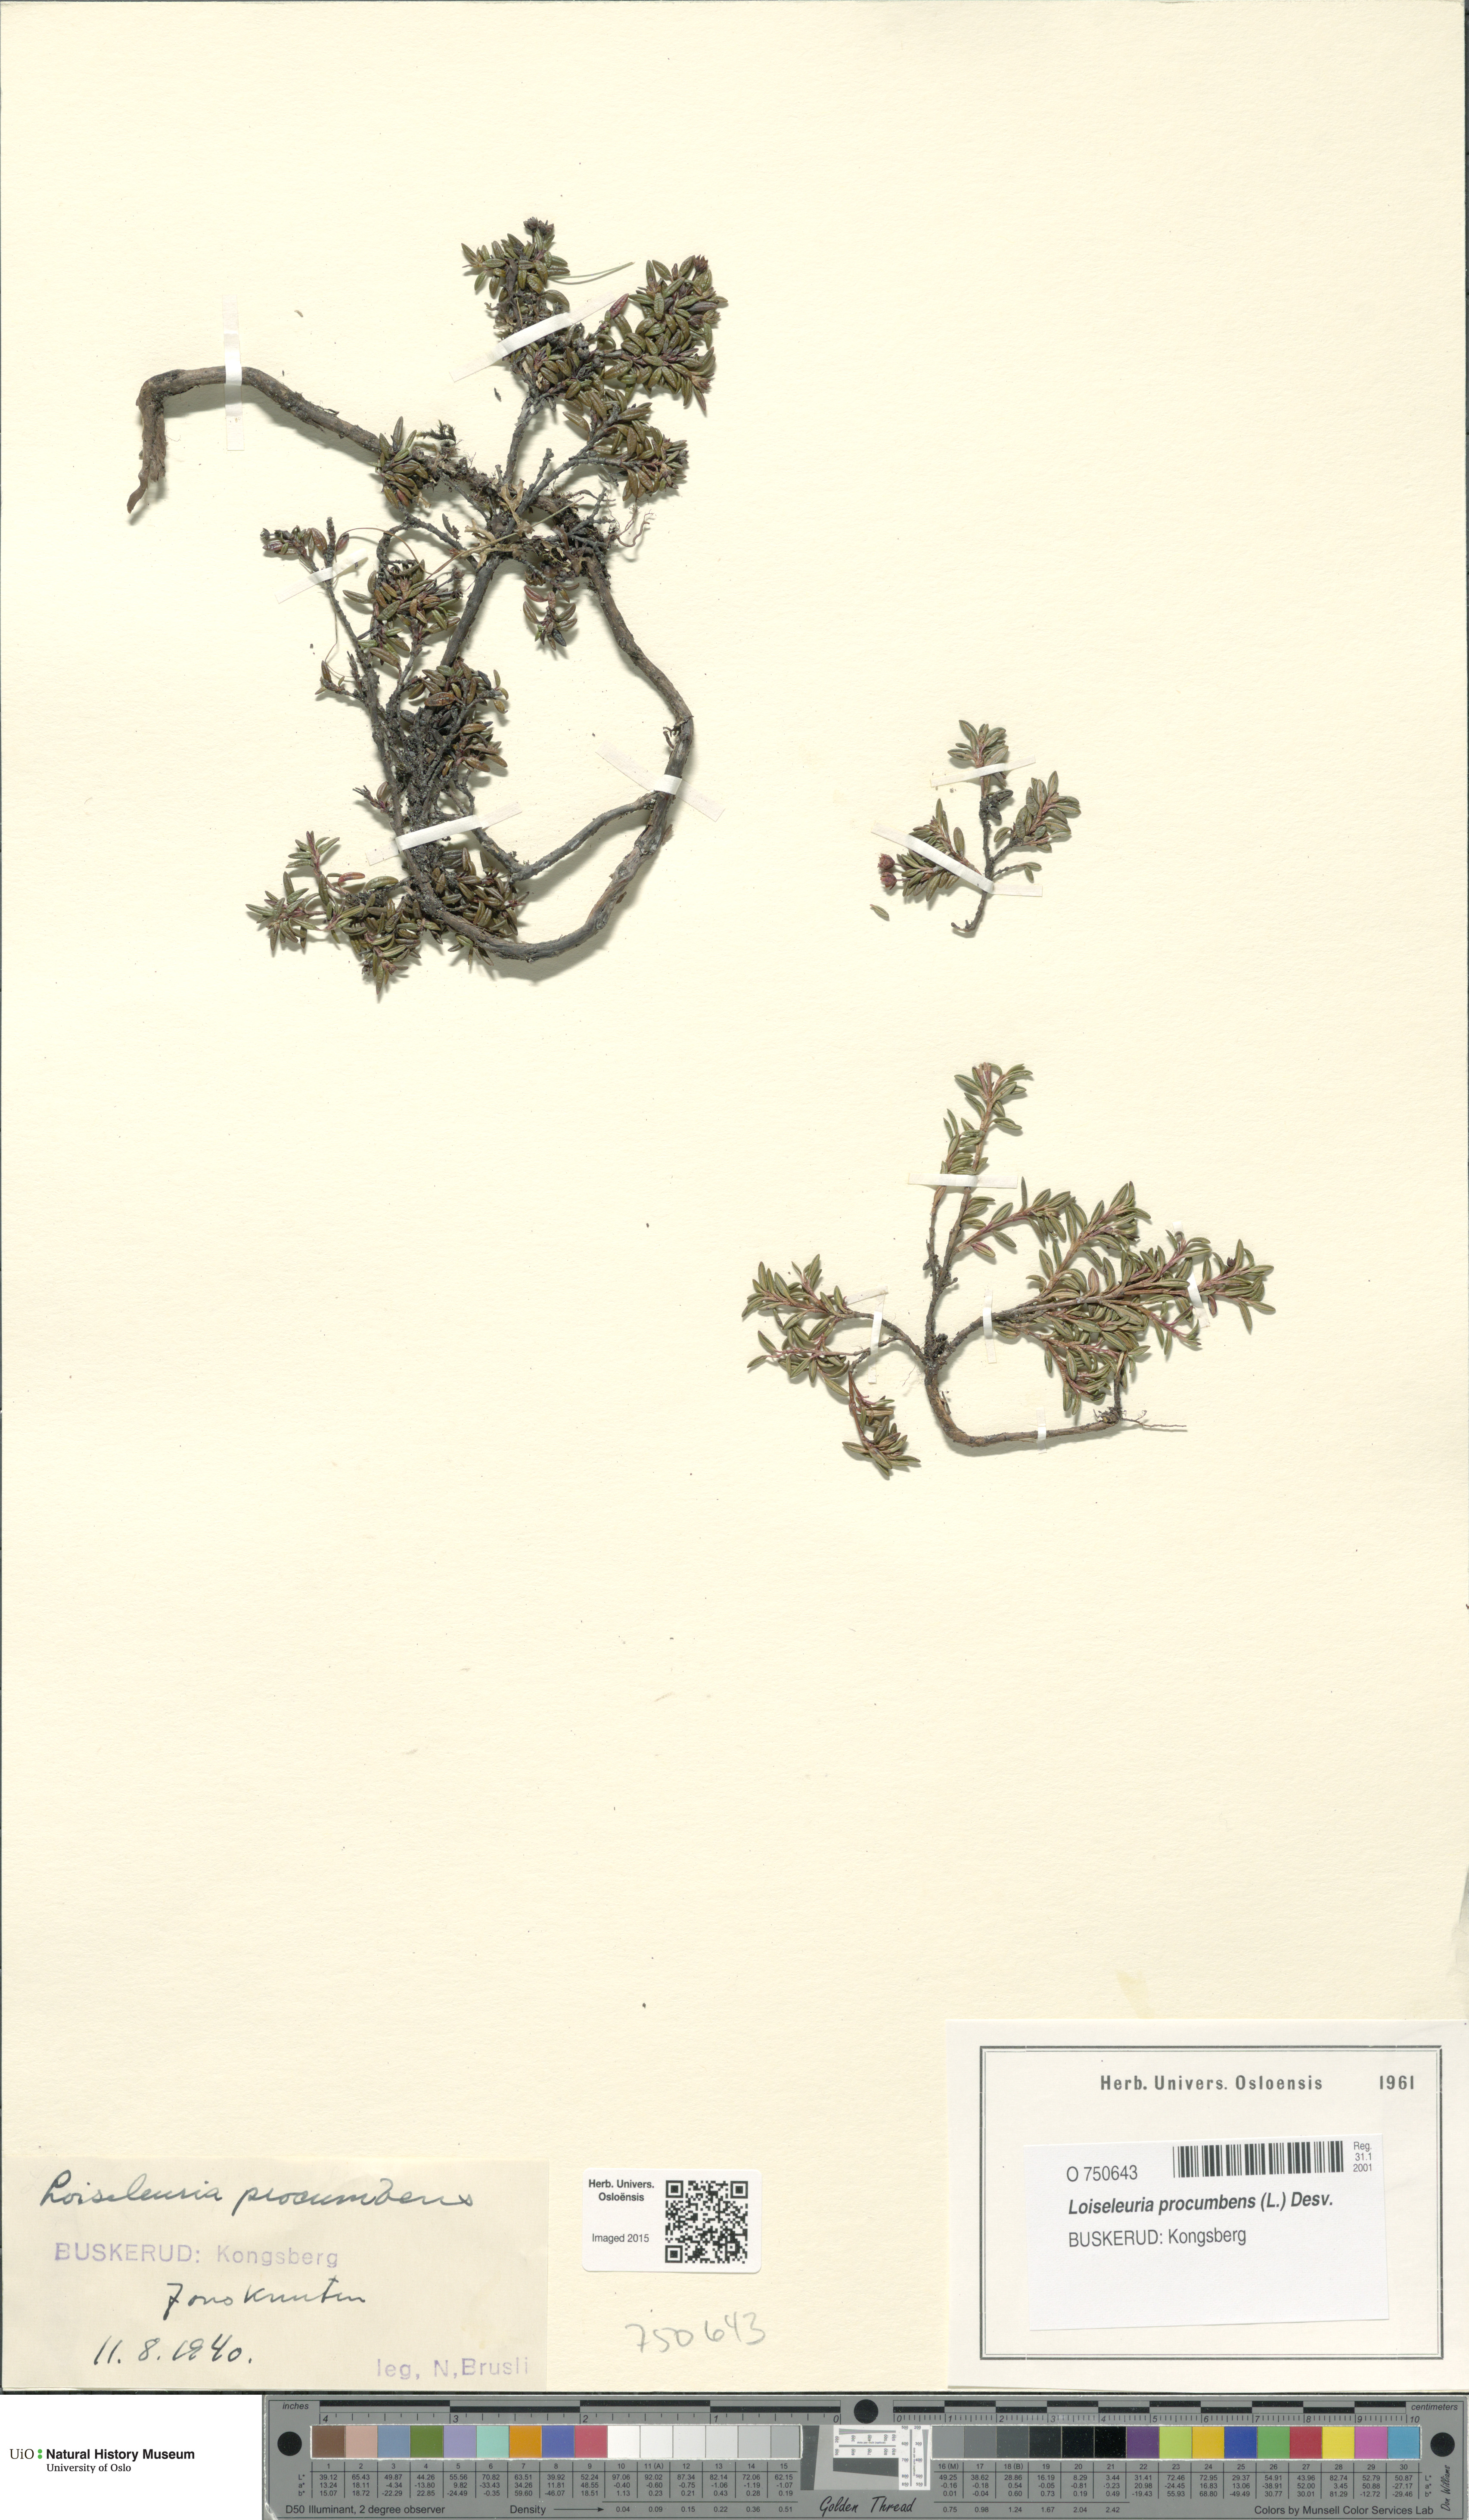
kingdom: Plantae
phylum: Tracheophyta
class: Magnoliopsida
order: Ericales
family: Ericaceae
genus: Kalmia
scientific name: Kalmia procumbens
